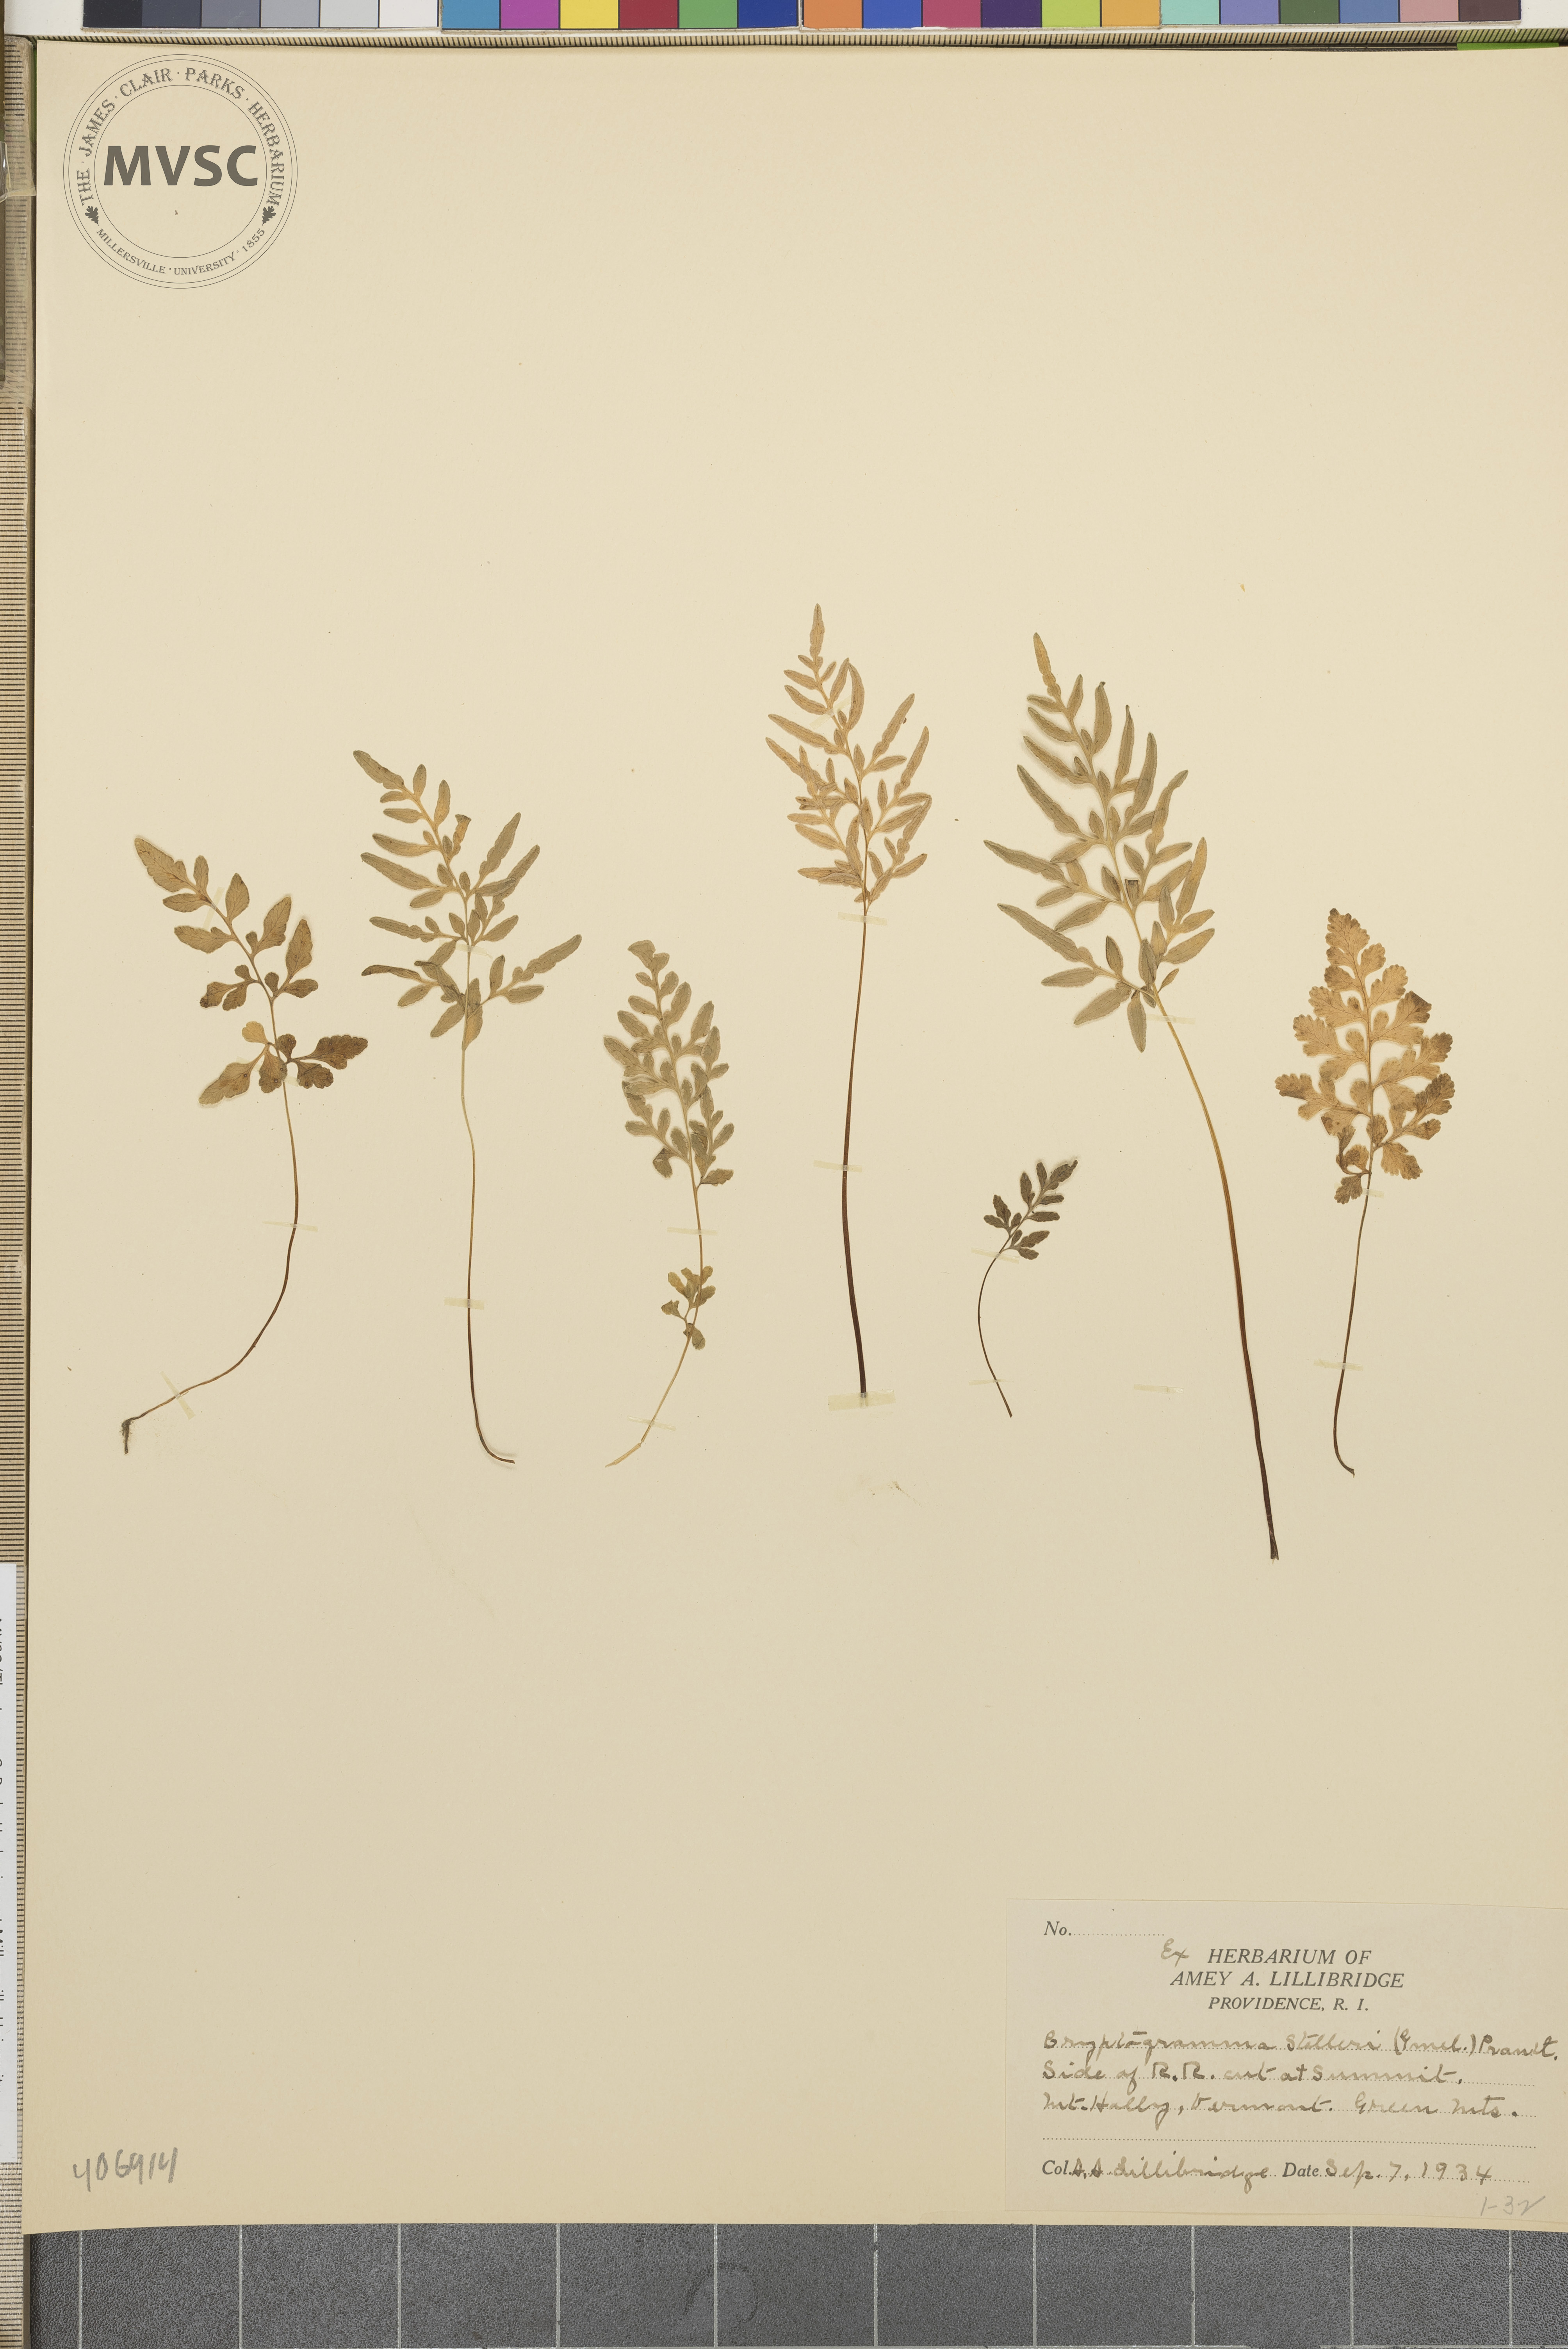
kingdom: Plantae
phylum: Tracheophyta
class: Polypodiopsida
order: Polypodiales
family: Pteridaceae
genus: Cryptogramma
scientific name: Cryptogramma stelleri
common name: Cliff-brake
